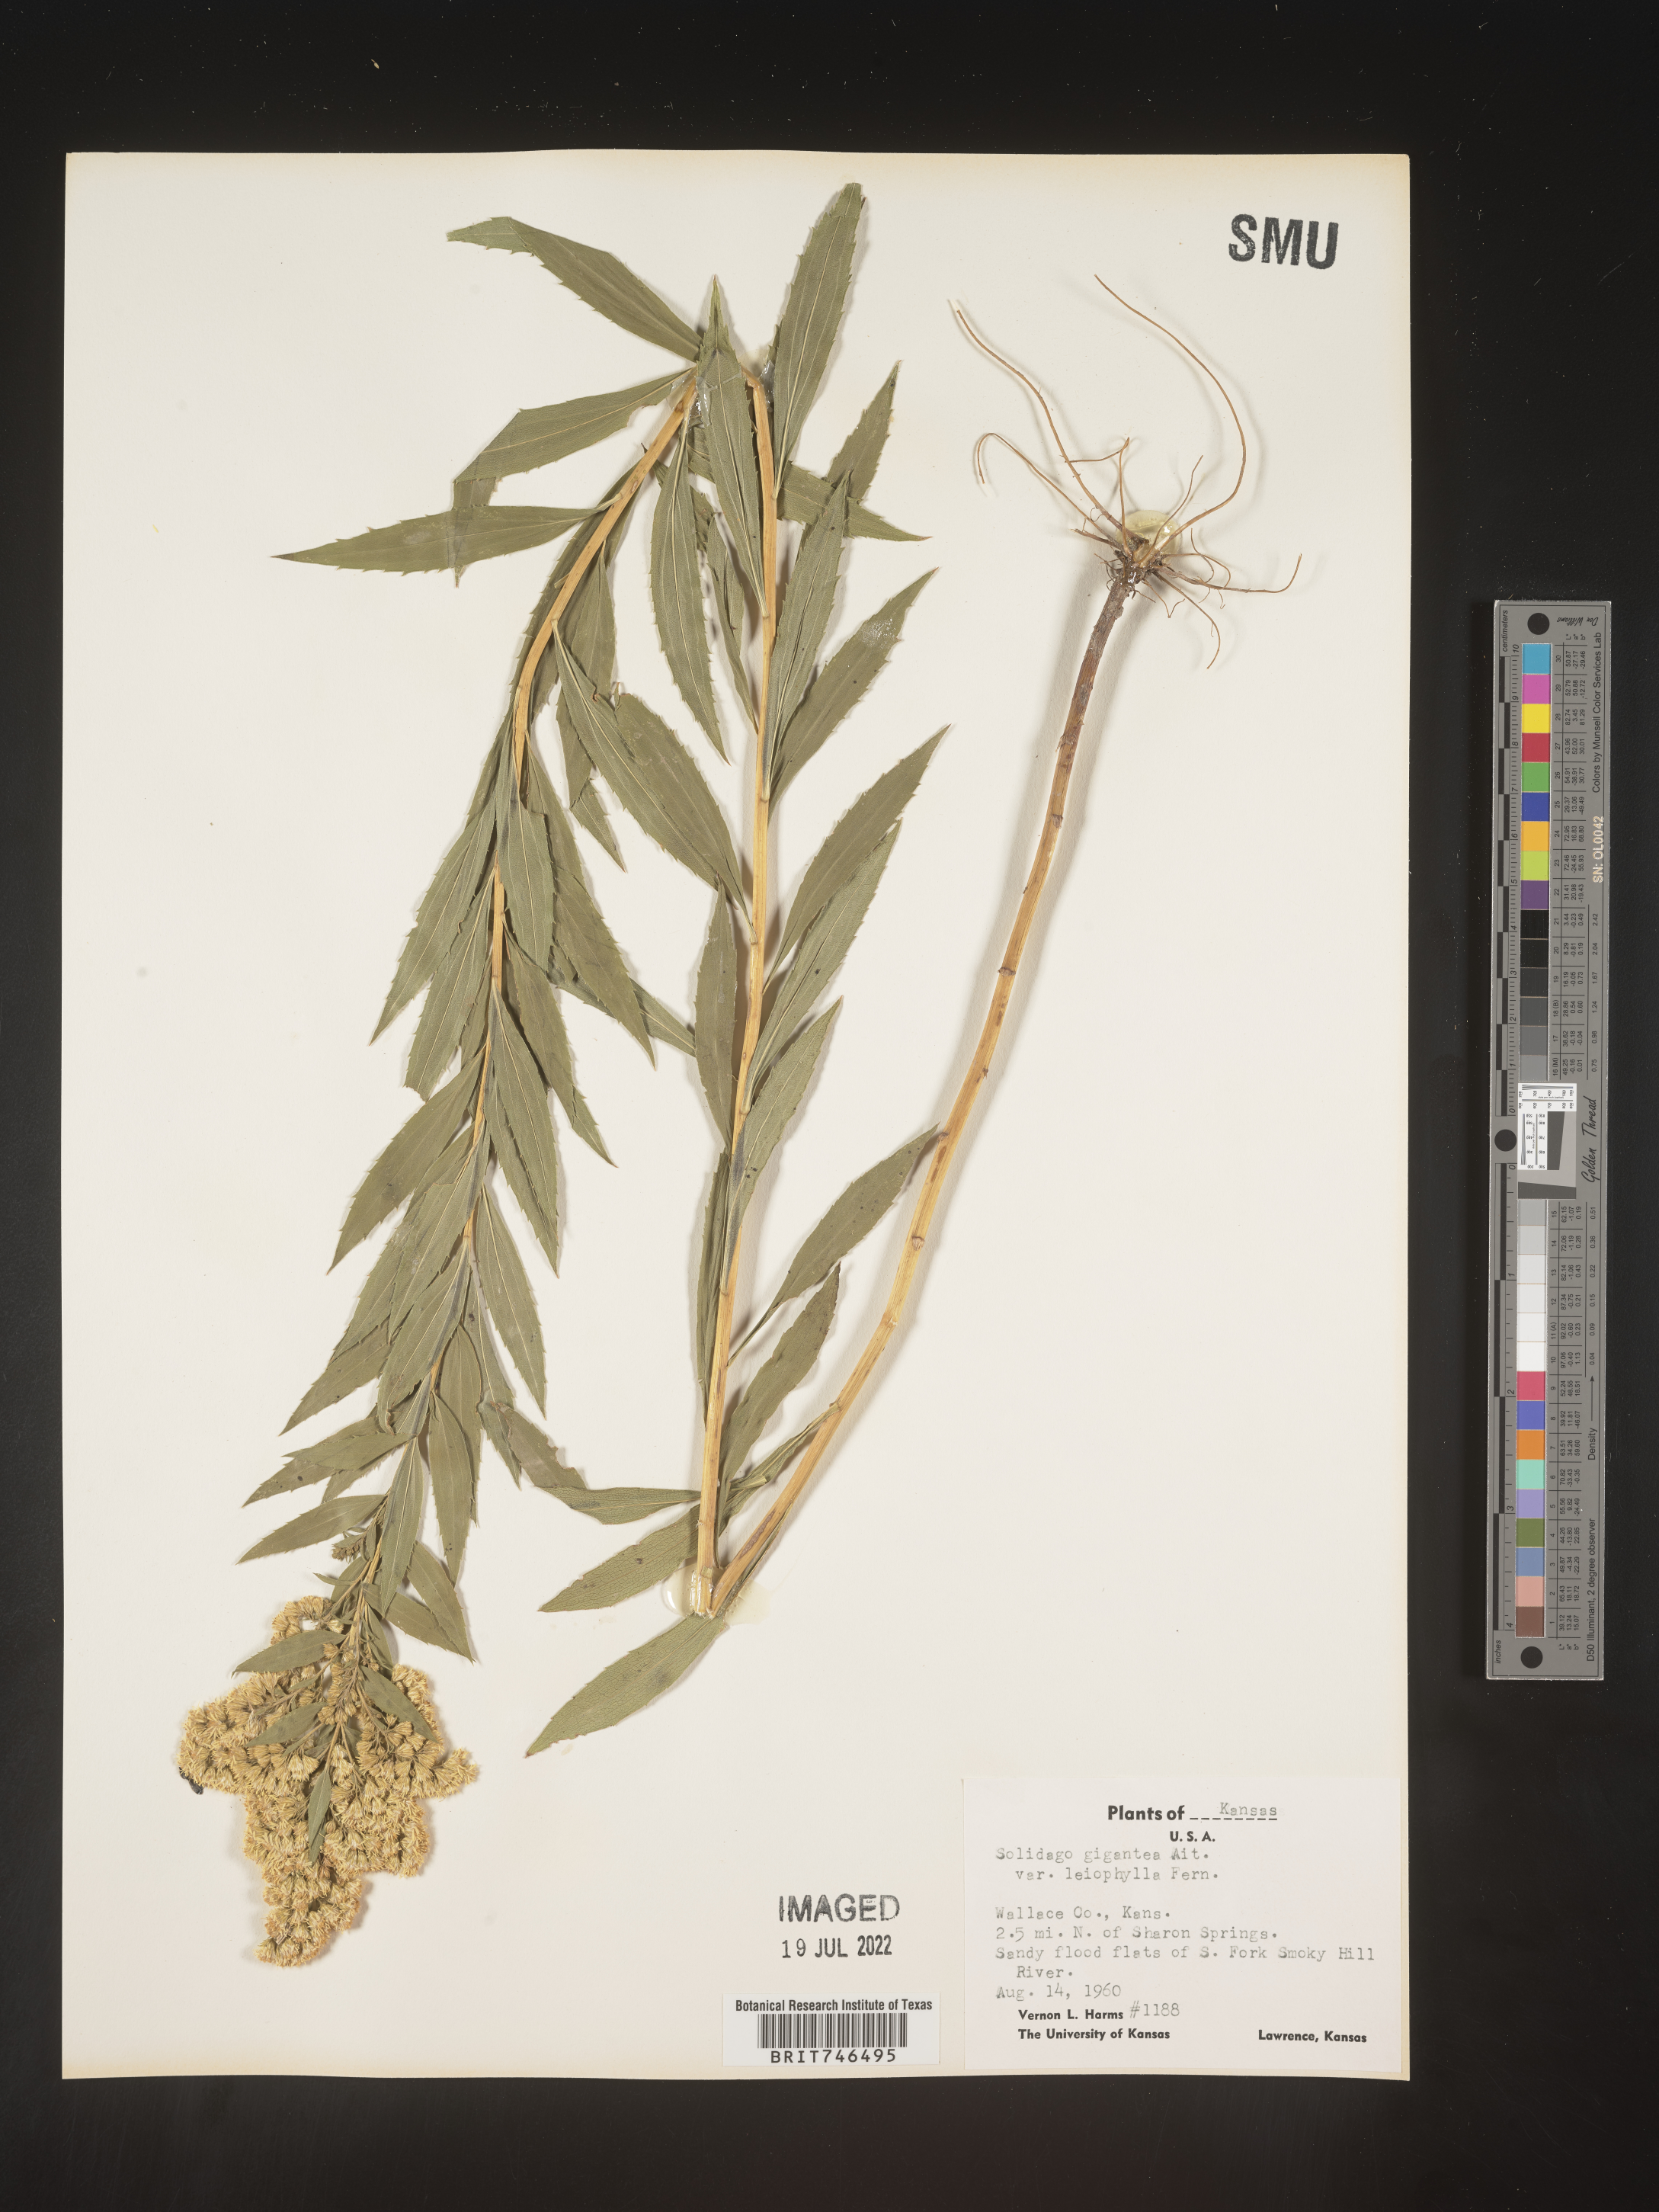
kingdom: Plantae
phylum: Tracheophyta
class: Magnoliopsida
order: Asterales
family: Asteraceae
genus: Solidago
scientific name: Solidago gigantea
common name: Giant goldenrod
